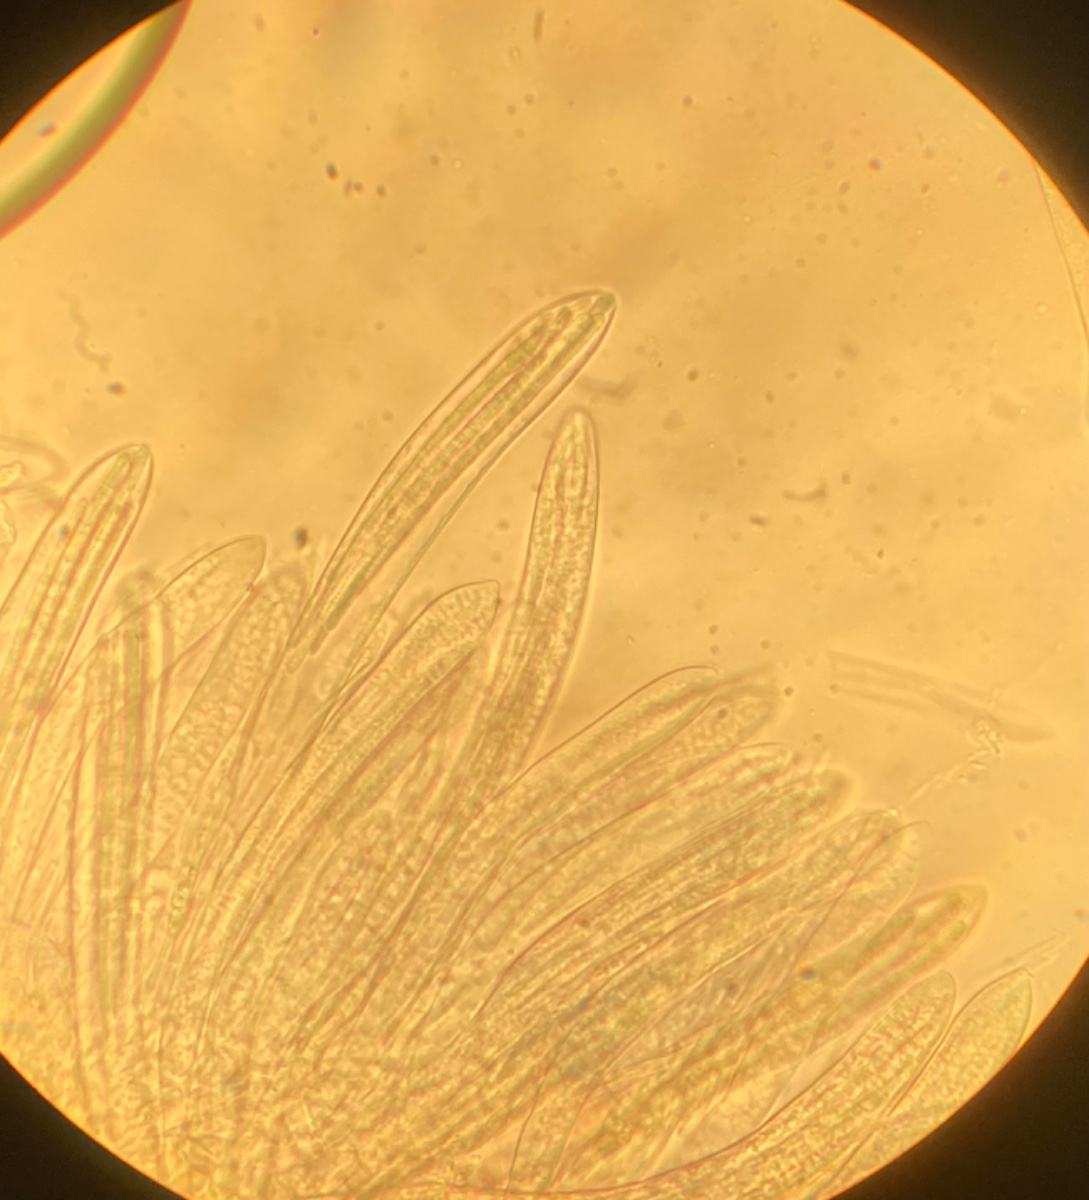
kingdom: Fungi
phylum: Ascomycota
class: Leotiomycetes
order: Helotiales
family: Arachnopezizaceae
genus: Arachnopeziza
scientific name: Arachnopeziza aurata
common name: bleggul spindskive
